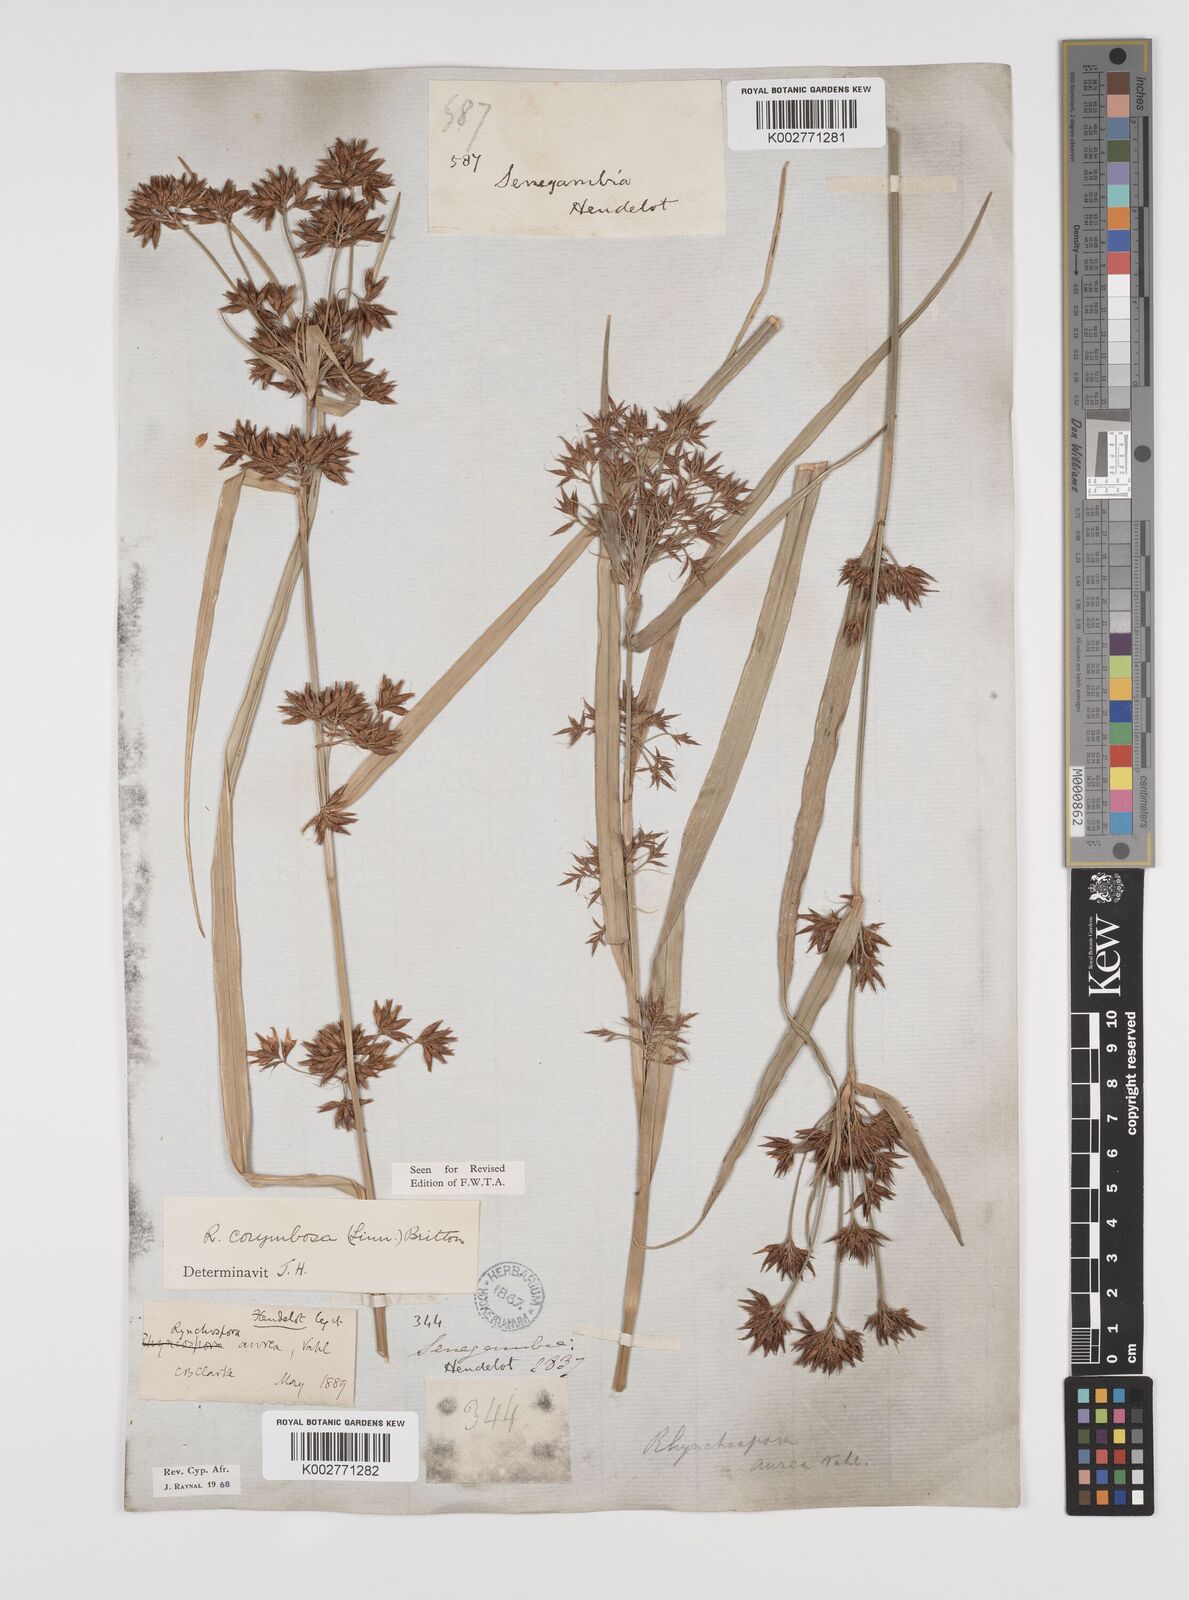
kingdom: Plantae
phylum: Tracheophyta
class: Liliopsida
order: Poales
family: Cyperaceae
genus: Rhynchospora
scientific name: Rhynchospora corymbosa
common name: Golden beak sedge
